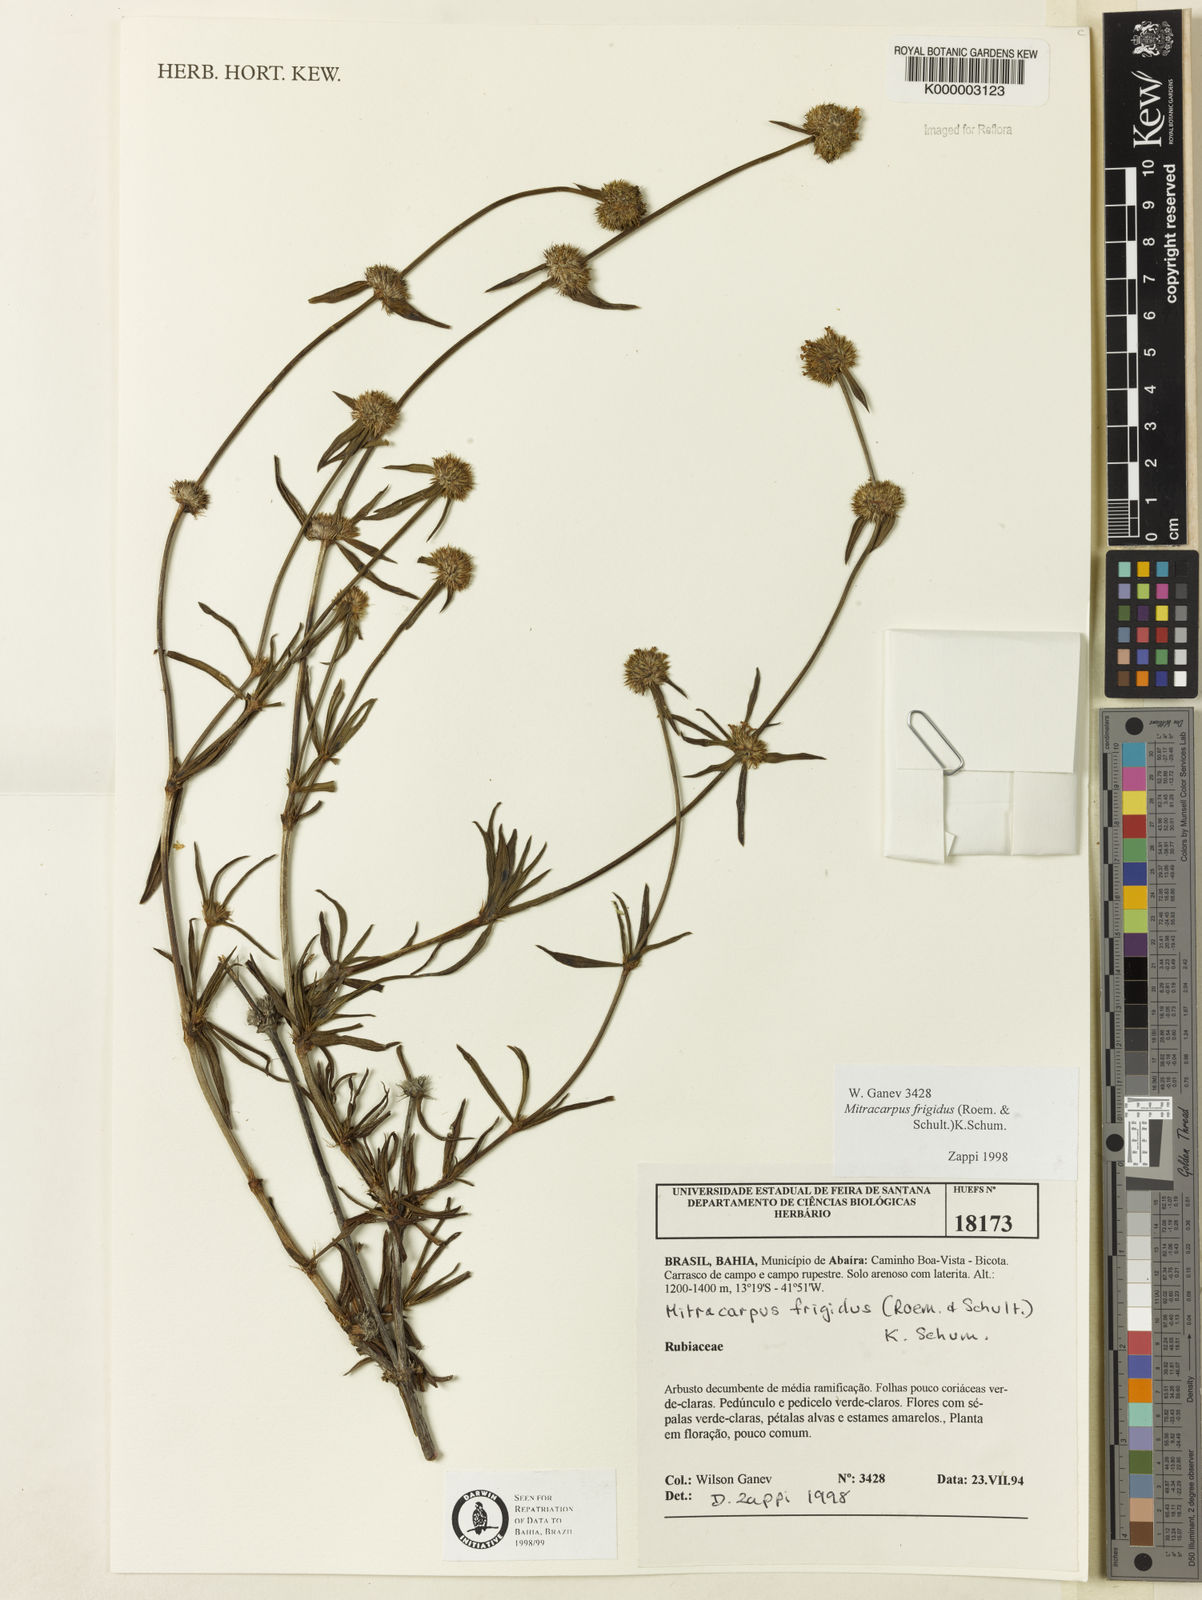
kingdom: Plantae
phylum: Tracheophyta
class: Magnoliopsida
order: Gentianales
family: Rubiaceae
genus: Mitracarpus
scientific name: Mitracarpus frigidus
